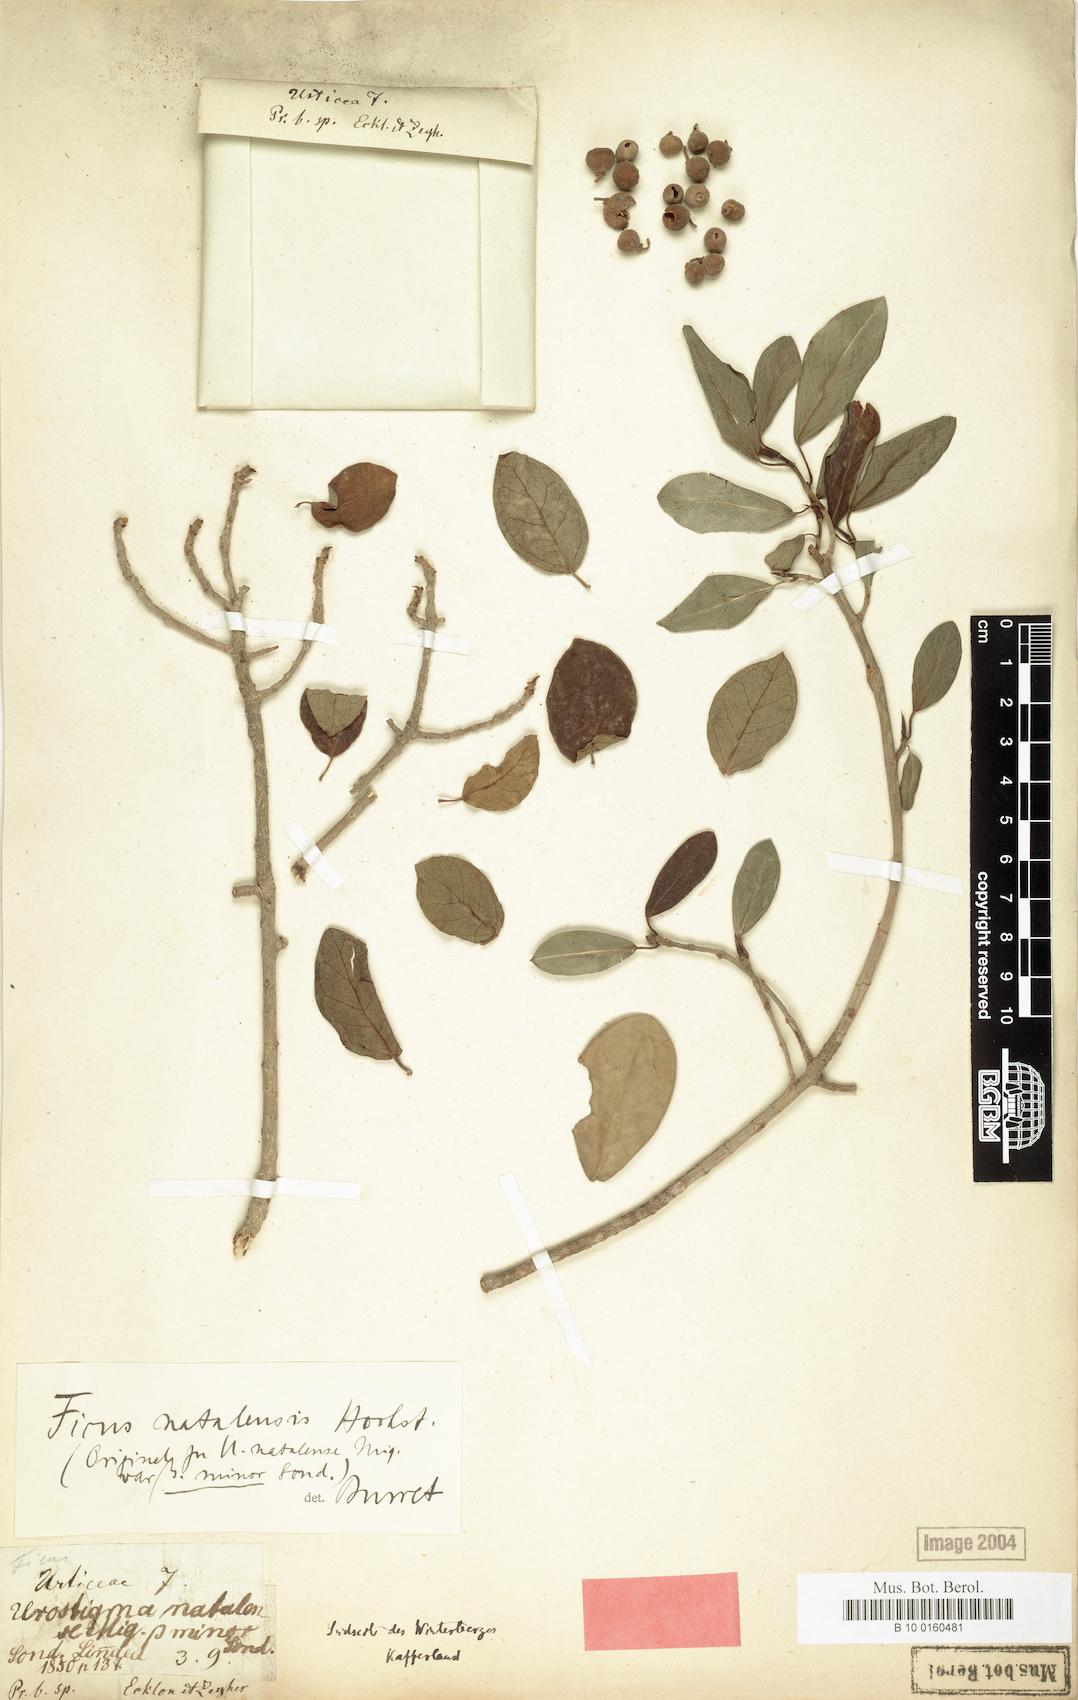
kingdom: Plantae
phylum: Tracheophyta
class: Magnoliopsida
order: Rosales
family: Moraceae
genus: Ficus
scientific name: Ficus burtt-davyi
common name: Scrambling fig
